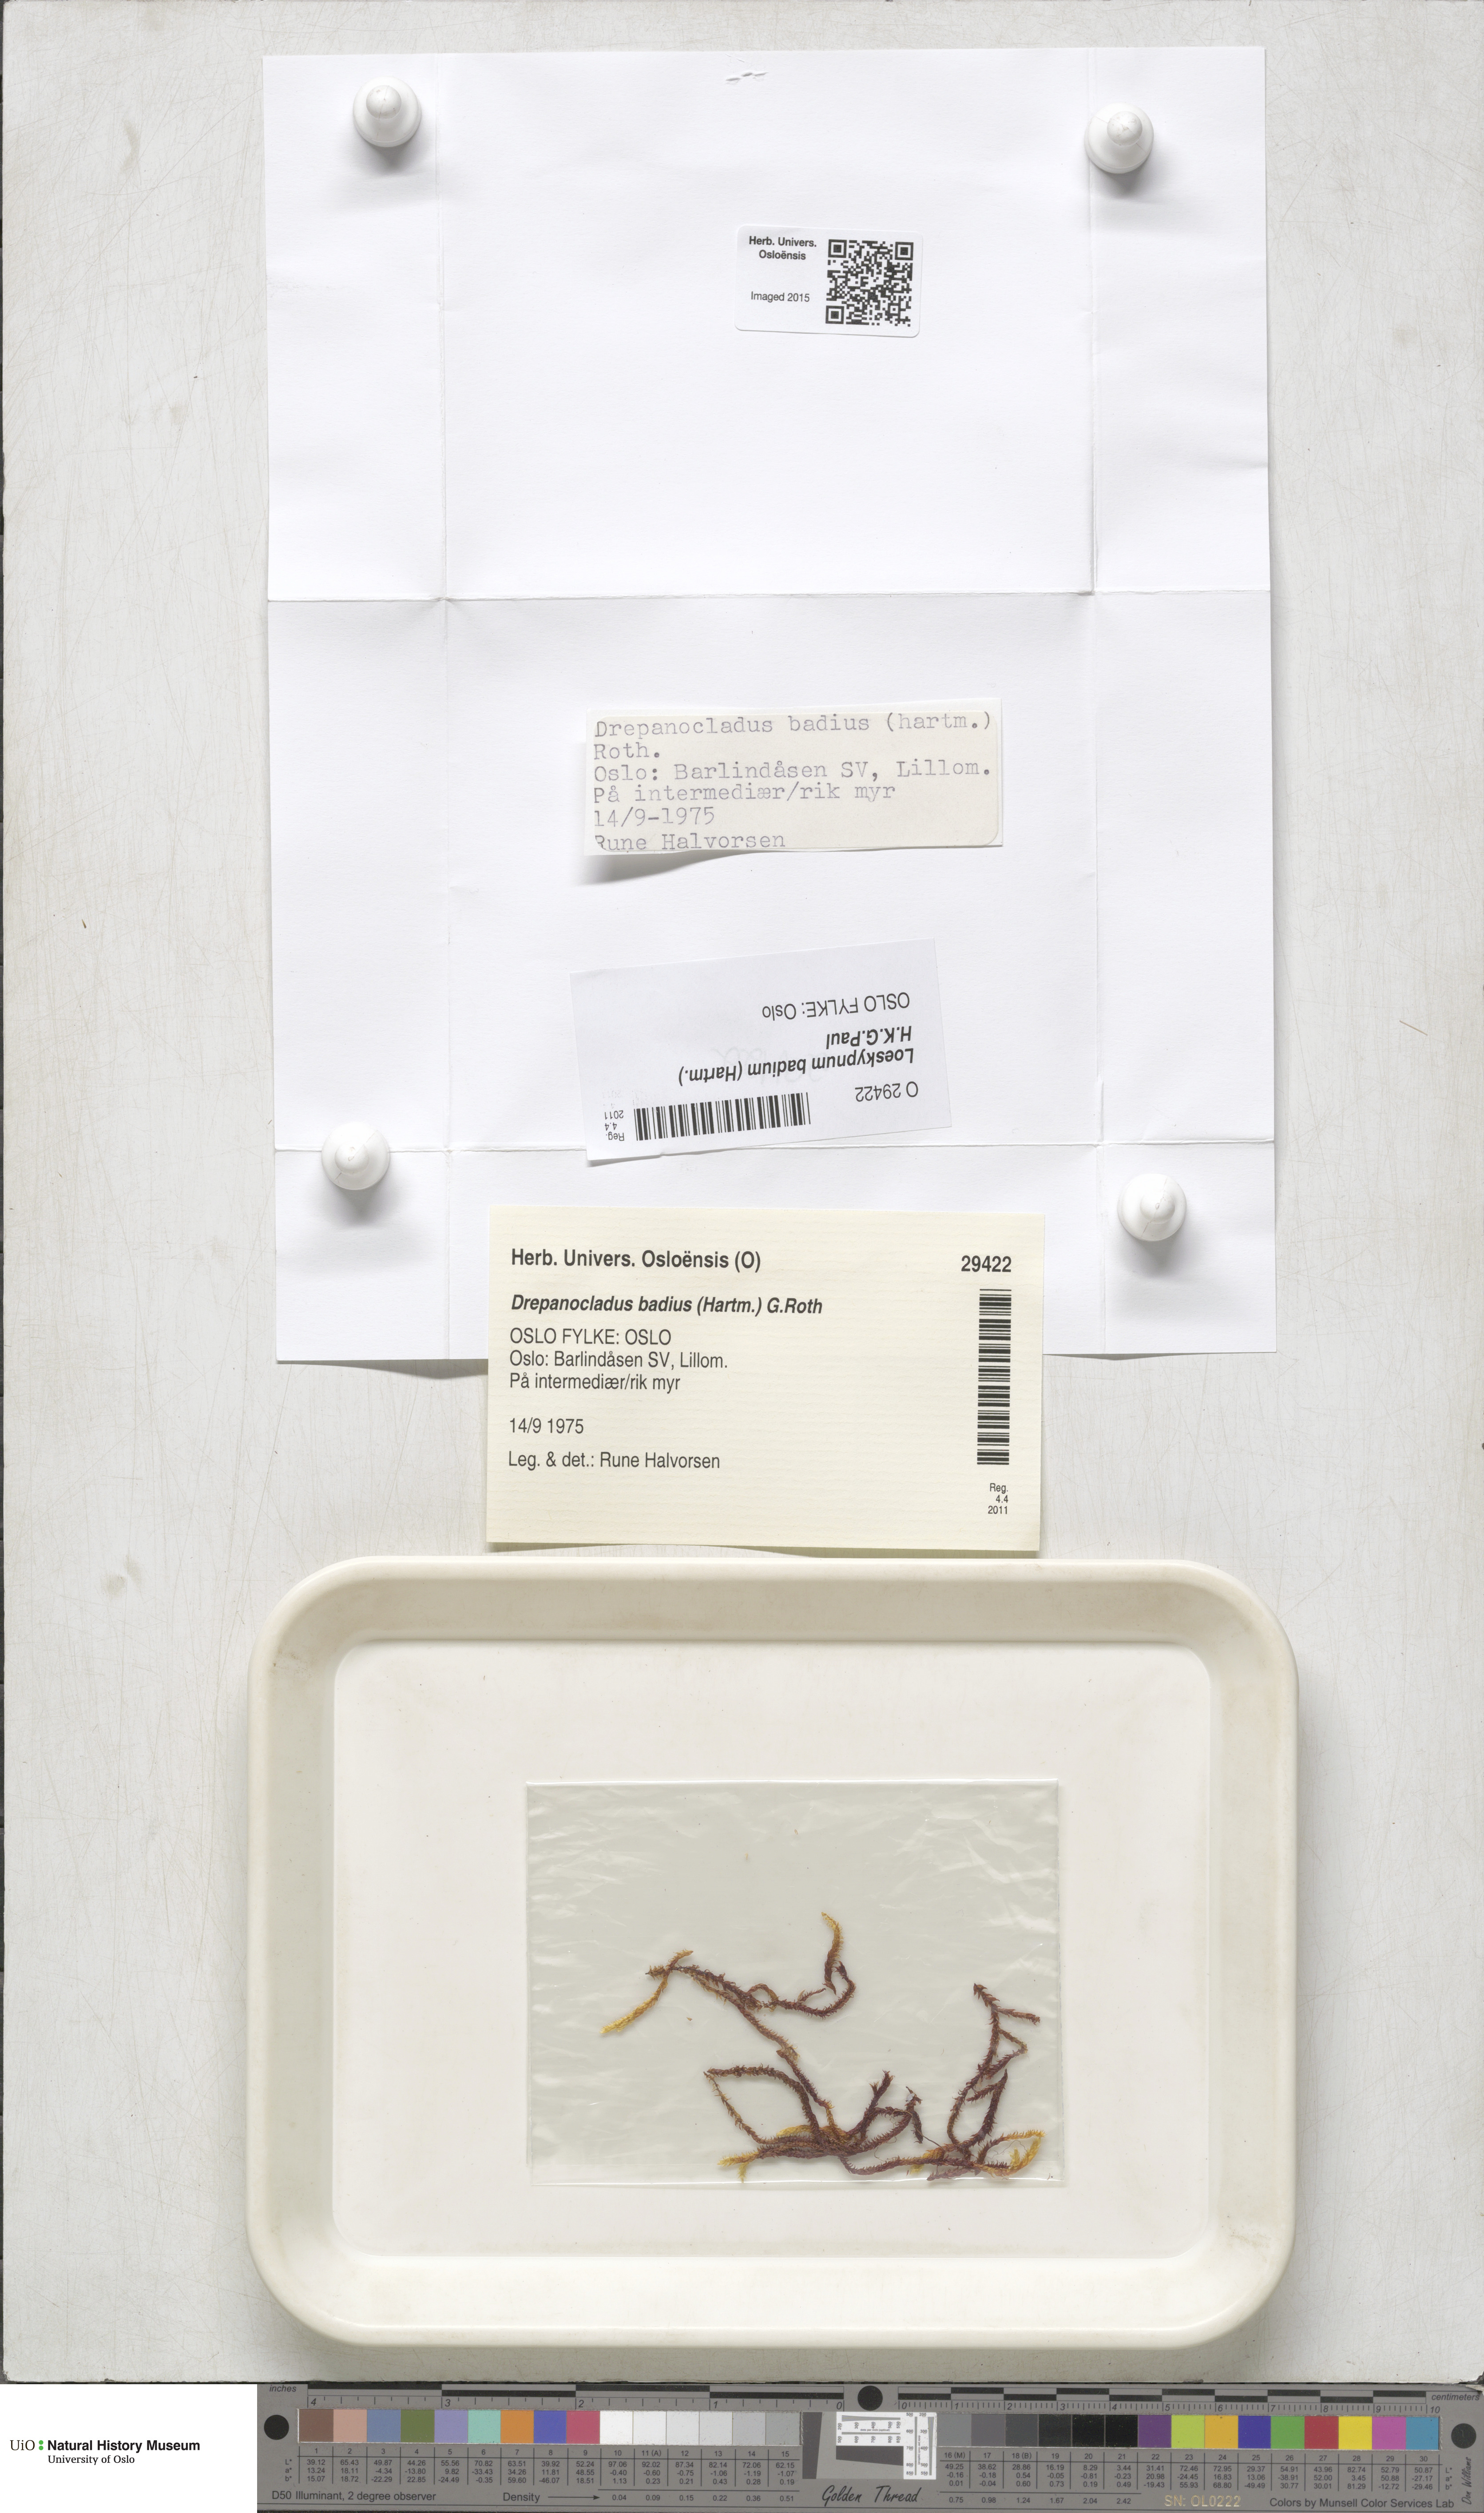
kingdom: Plantae
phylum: Bryophyta
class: Bryopsida
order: Hypnales
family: Calliergonaceae
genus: Loeskypnum
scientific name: Loeskypnum badium
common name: Sickle-leaved loeskypnum
